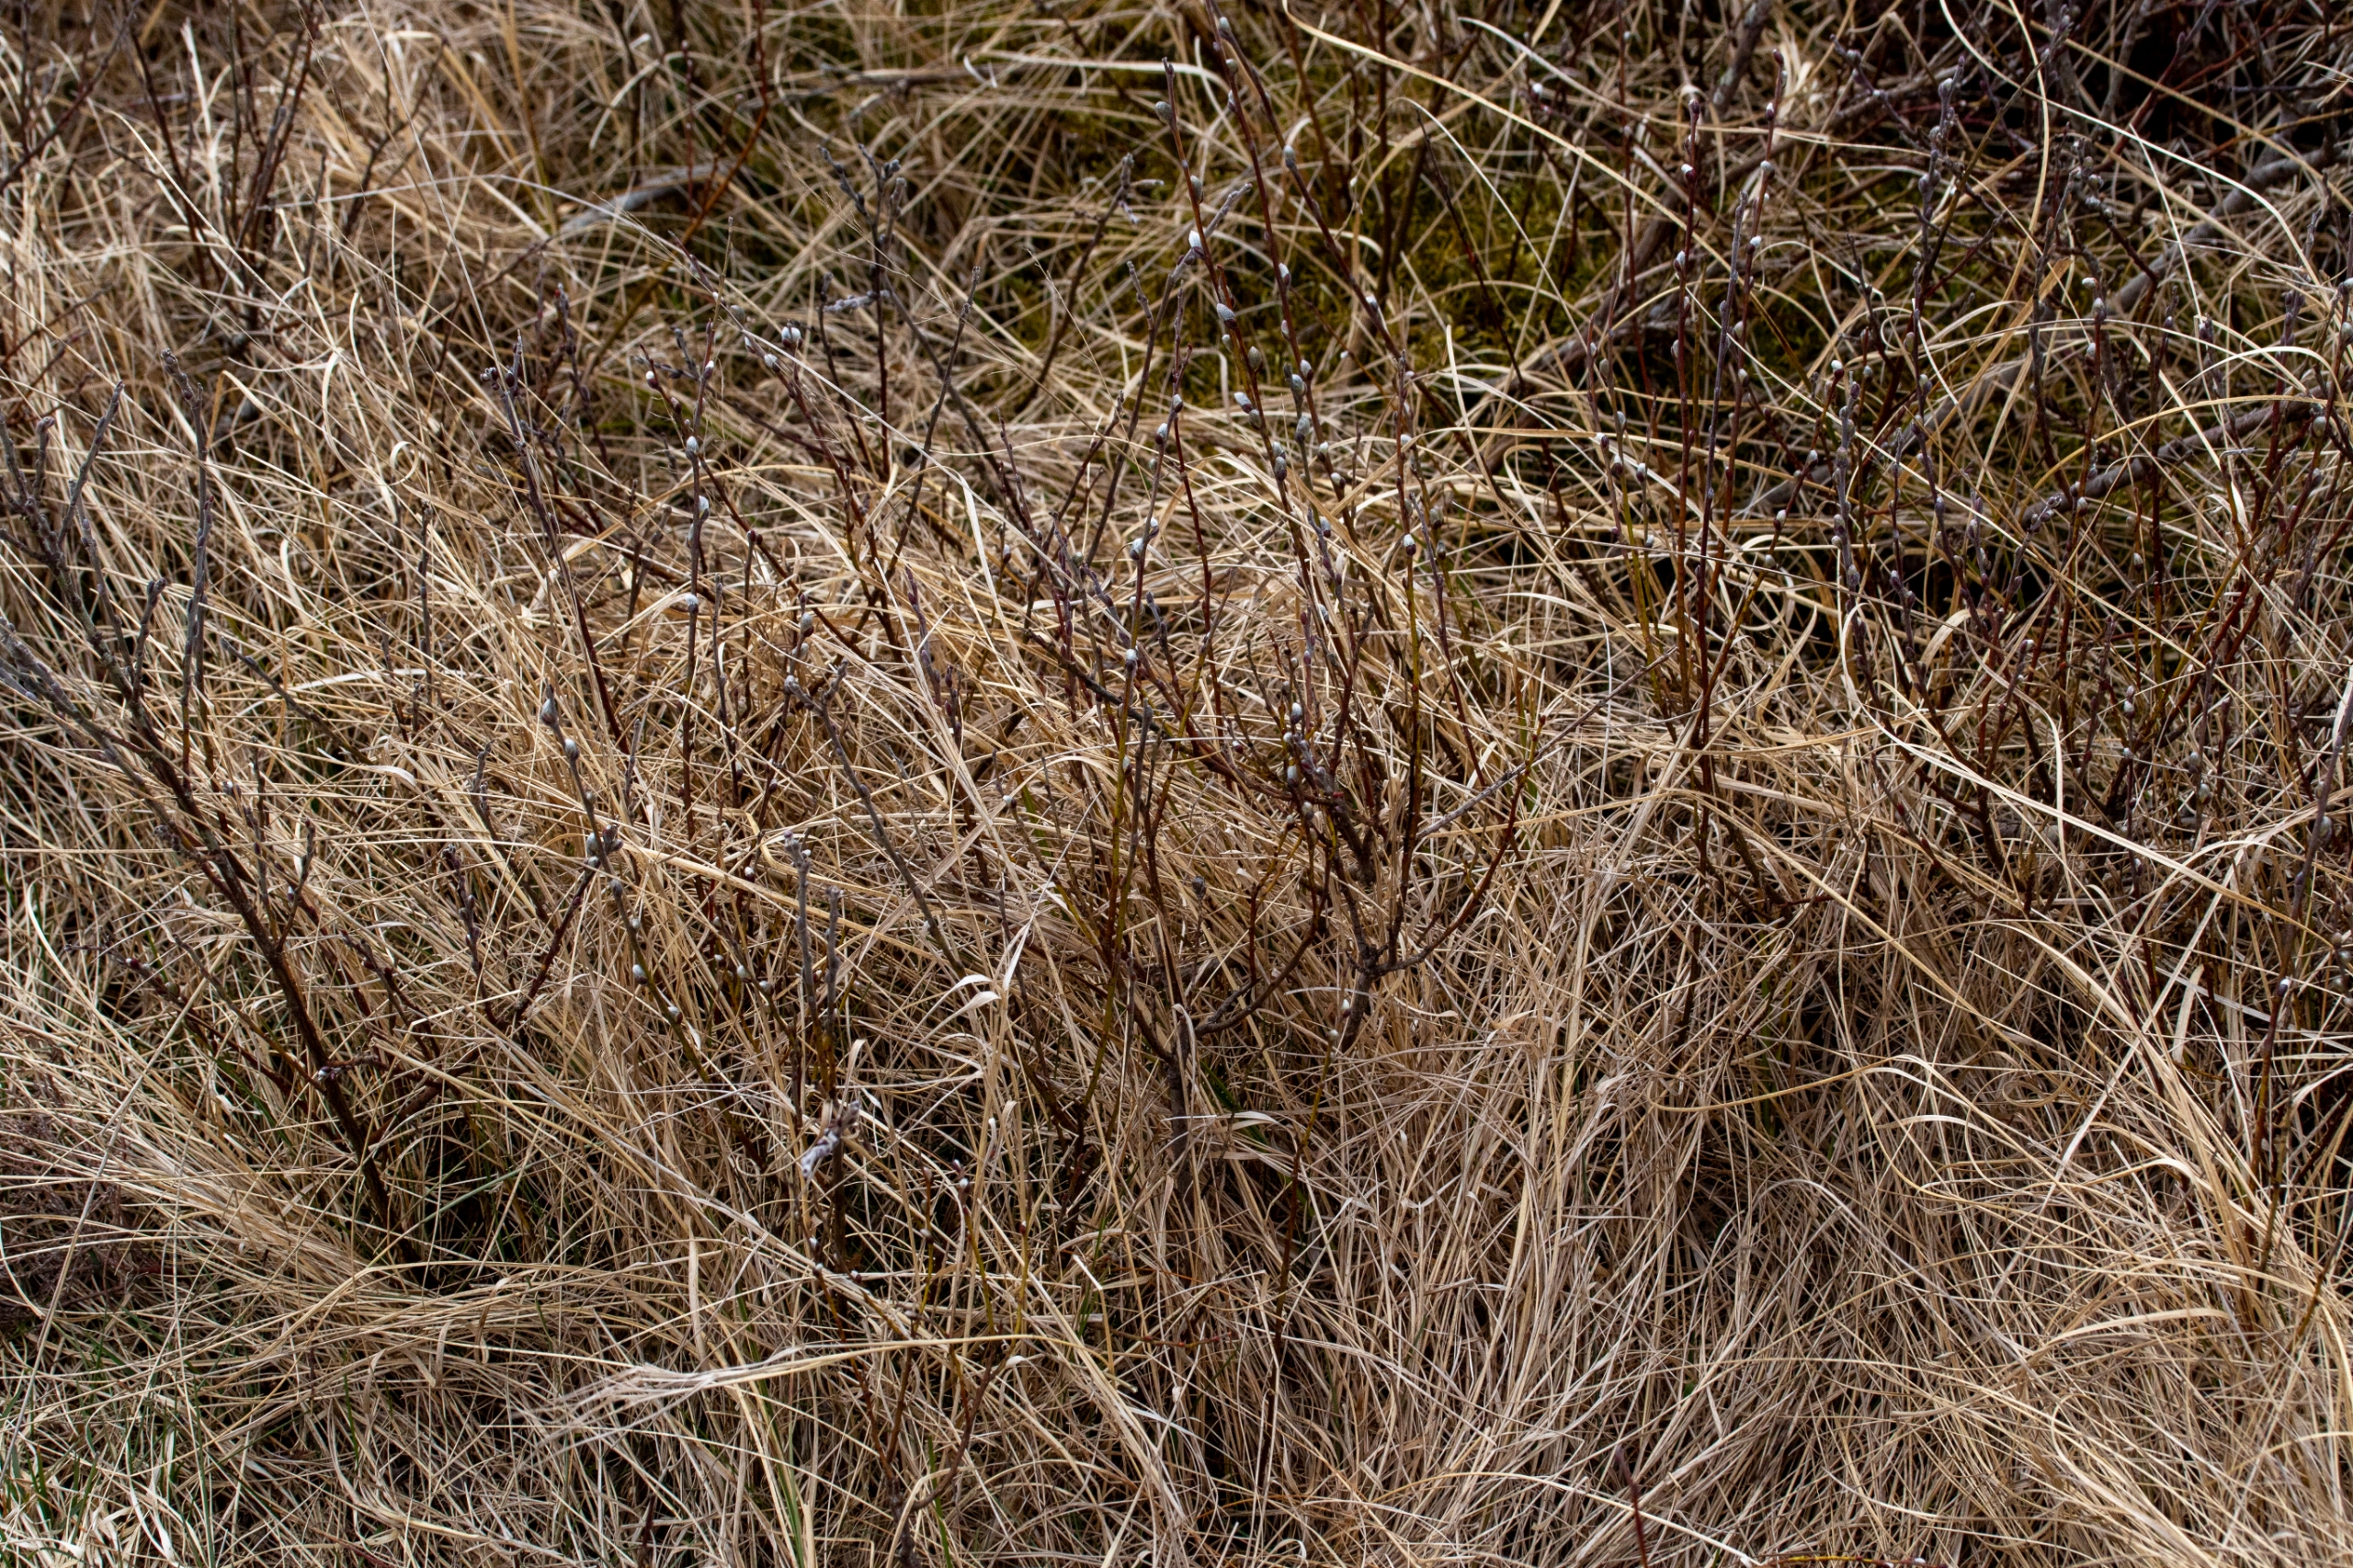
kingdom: Plantae
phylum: Tracheophyta
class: Magnoliopsida
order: Malpighiales
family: Salicaceae
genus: Salix
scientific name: Salix repens
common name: Krybende pil
